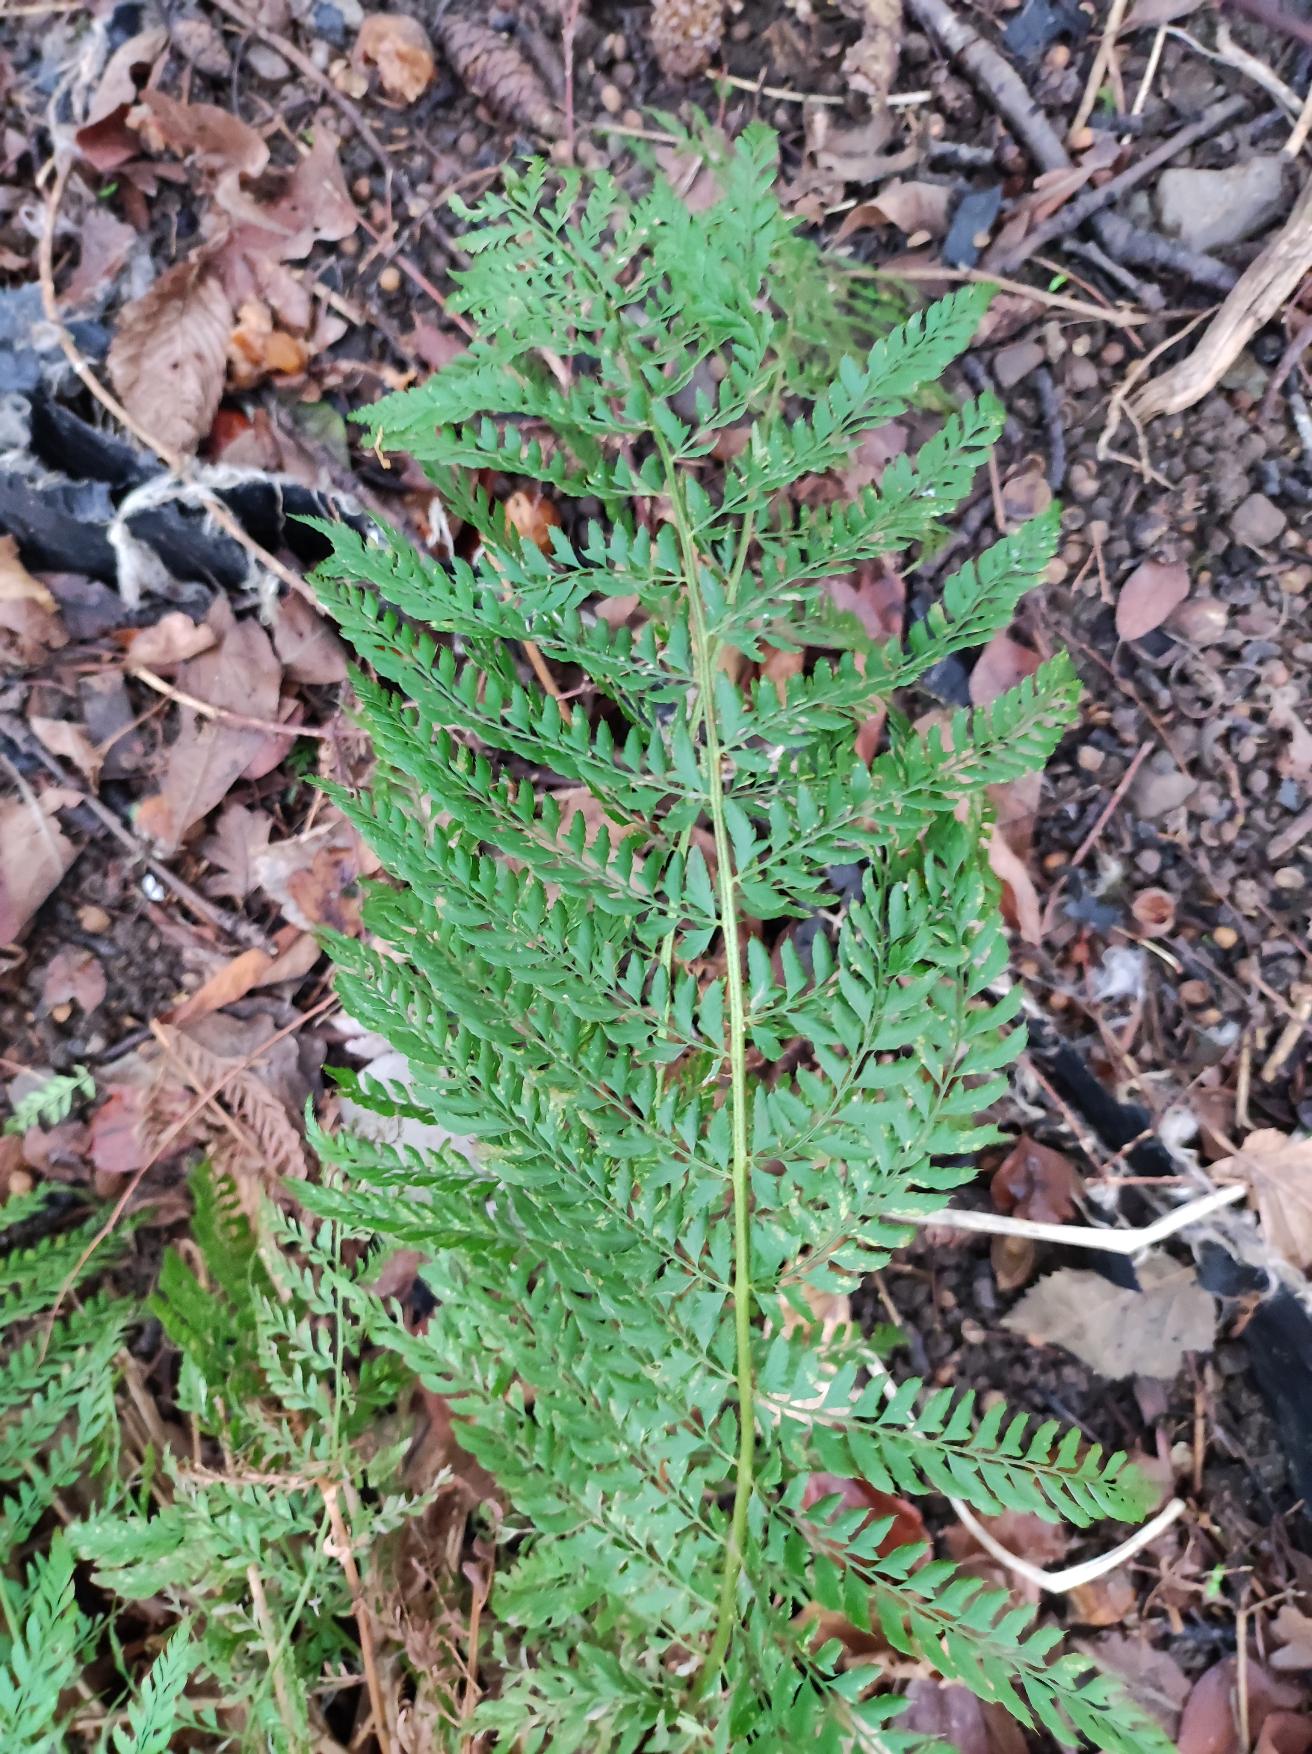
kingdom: Plantae
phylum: Tracheophyta
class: Polypodiopsida
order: Polypodiales
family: Dryopteridaceae
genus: Polystichum
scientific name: Polystichum setiferum
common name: Børste-skjoldbregne
